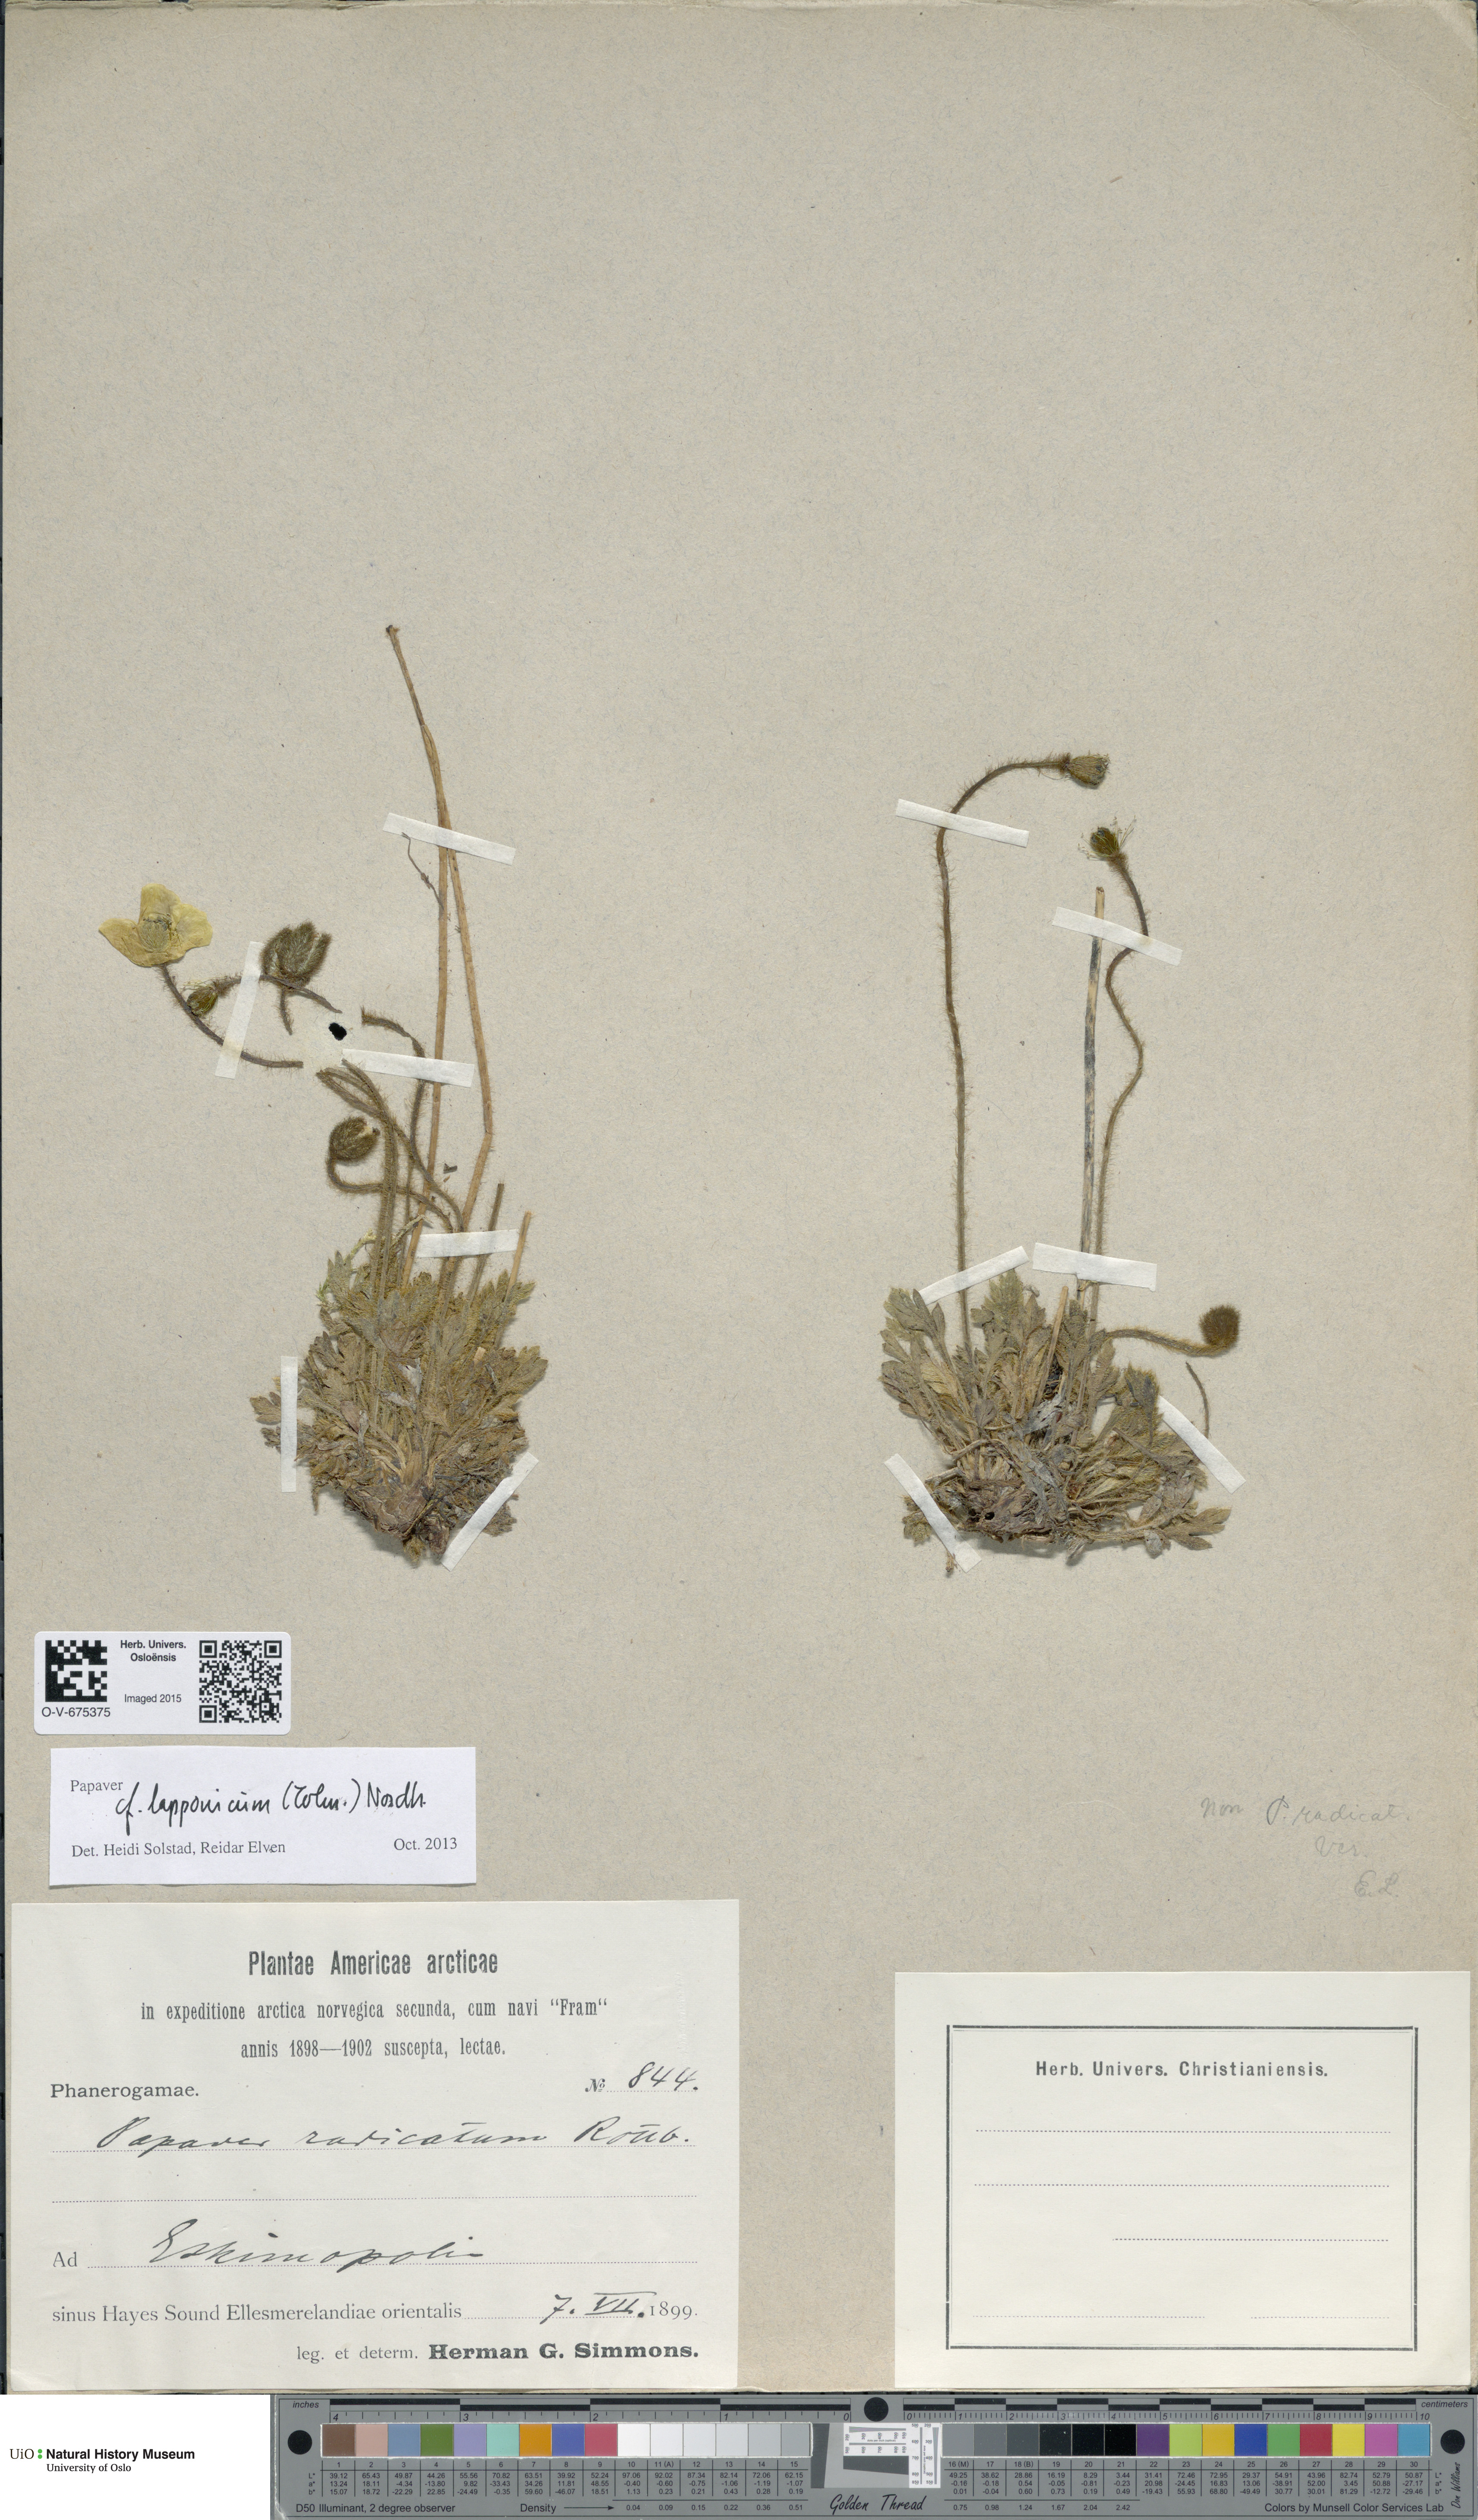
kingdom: Plantae
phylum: Tracheophyta
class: Magnoliopsida
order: Ranunculales
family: Papaveraceae
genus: Papaver
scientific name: Papaver radicatum
